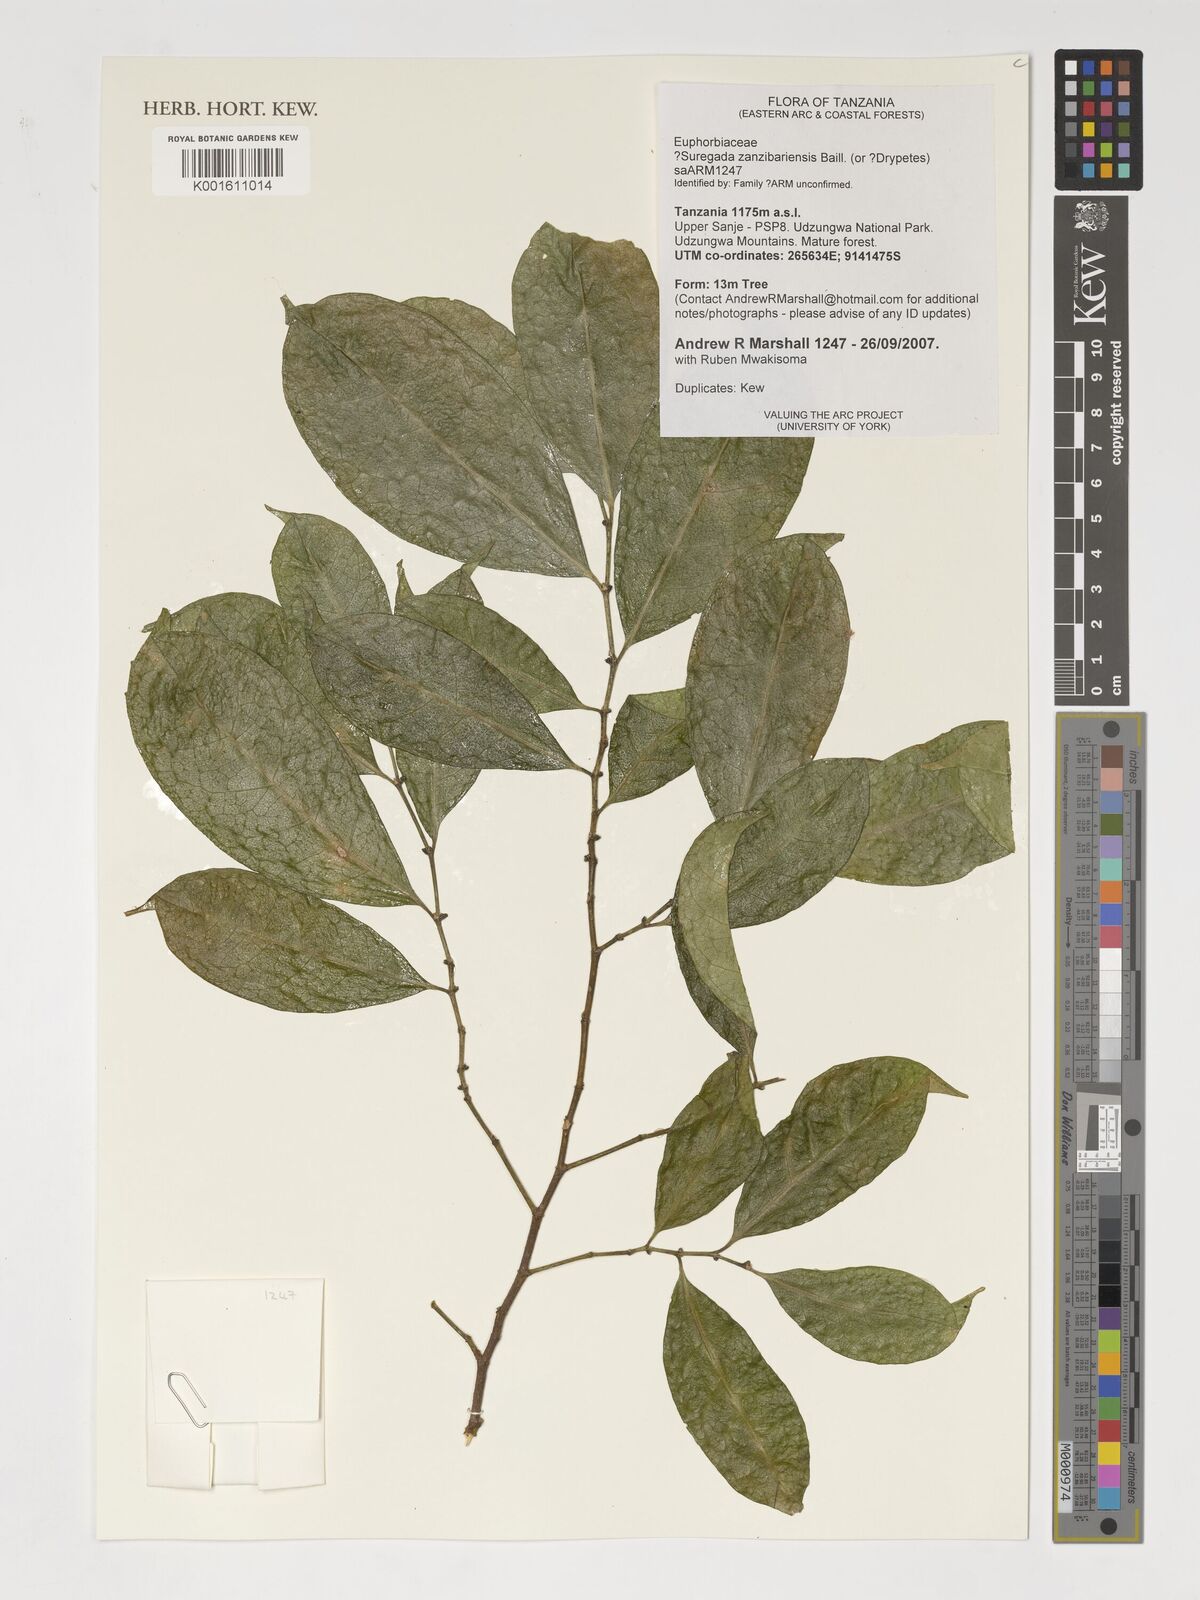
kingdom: Plantae
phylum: Tracheophyta
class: Magnoliopsida
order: Malpighiales
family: Euphorbiaceae
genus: Suregada
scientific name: Suregada zanzibariensis
